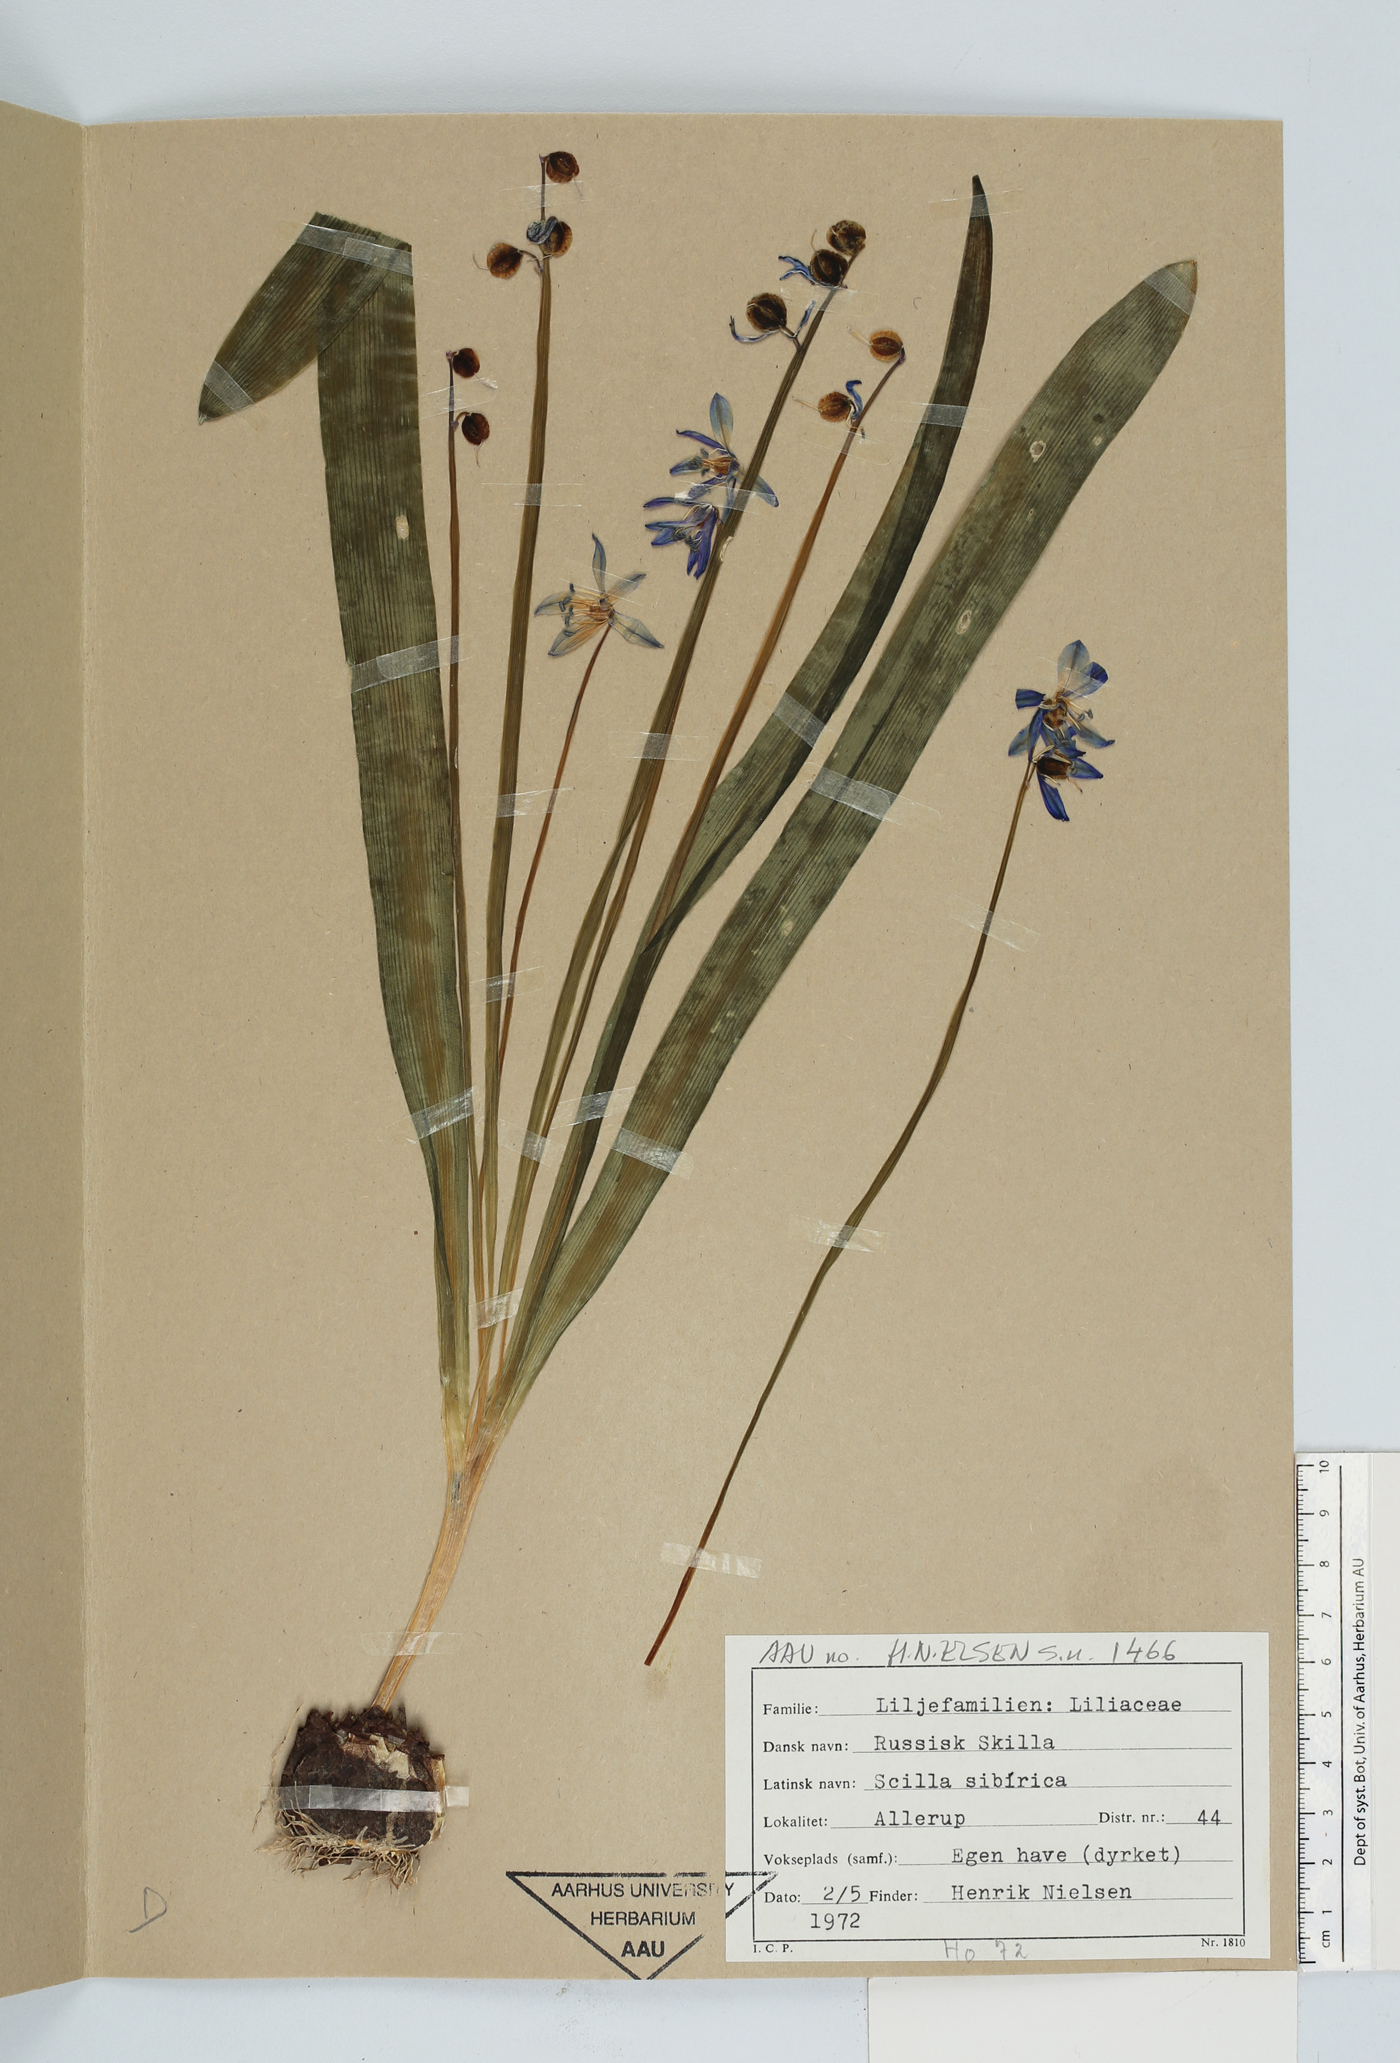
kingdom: Plantae
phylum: Tracheophyta
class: Liliopsida
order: Asparagales
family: Asparagaceae
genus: Scilla
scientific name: Scilla siberica
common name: Siberian squill
